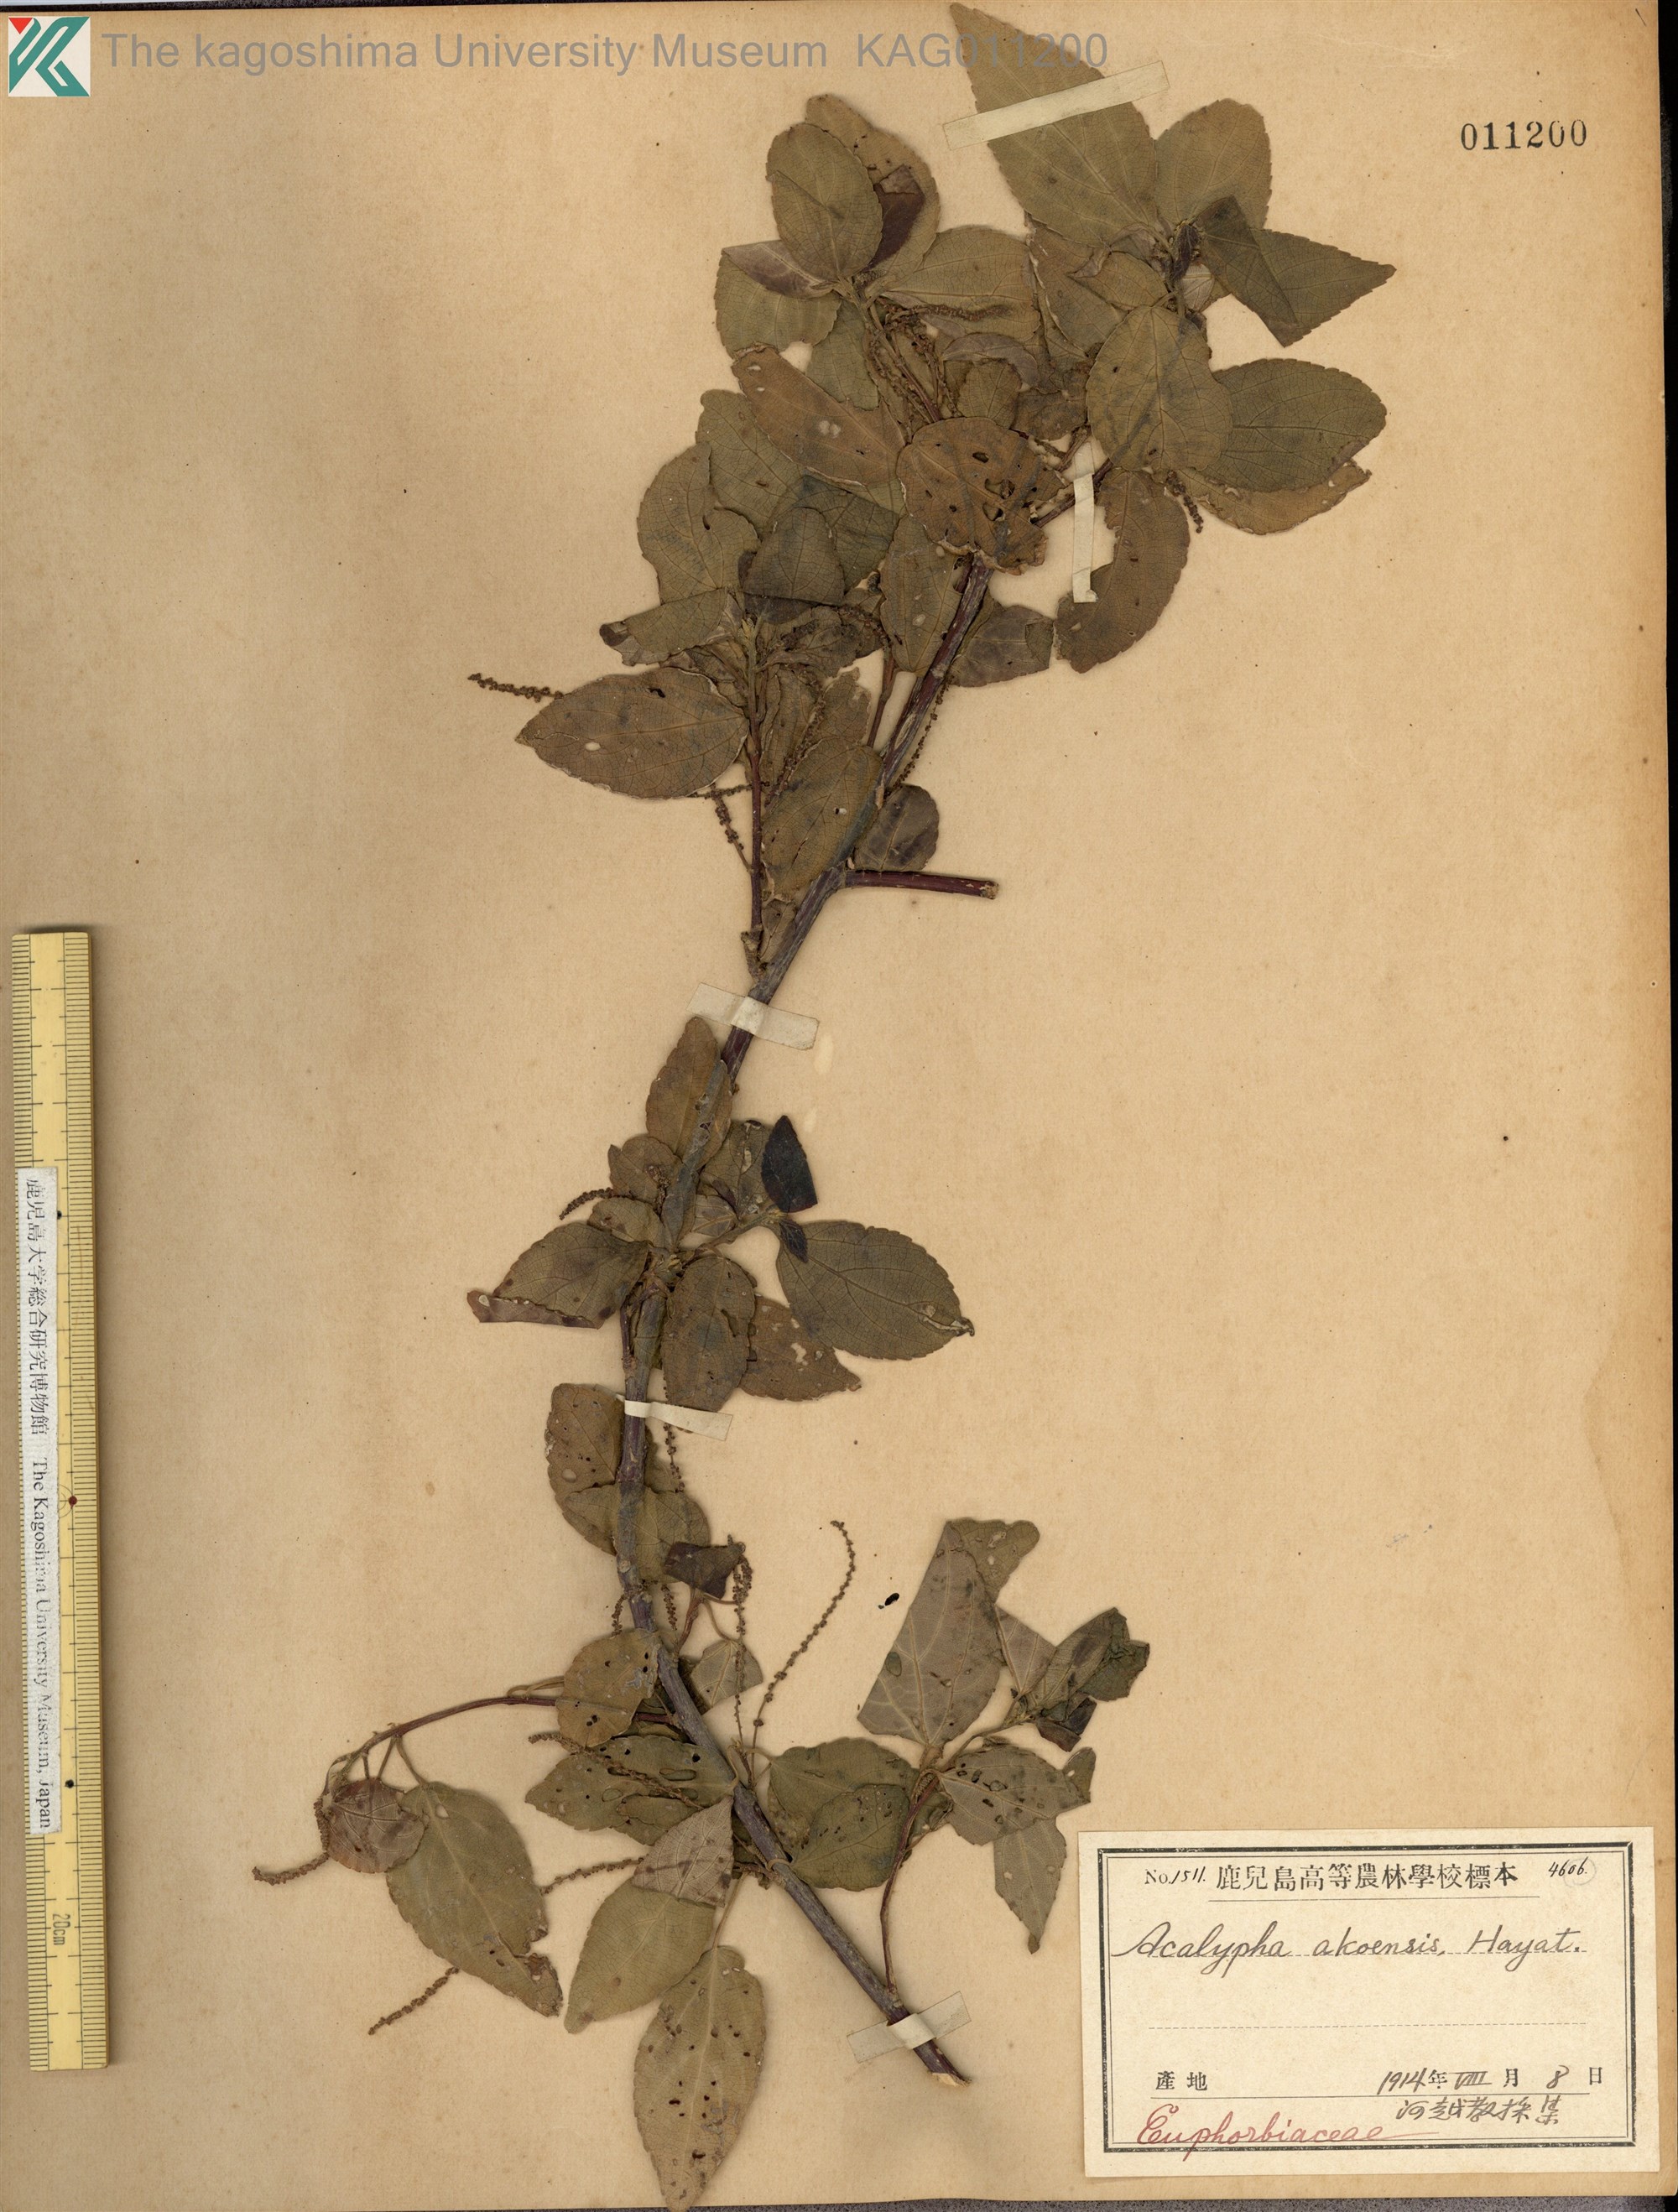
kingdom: Plantae
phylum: Tracheophyta
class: Magnoliopsida
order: Malpighiales
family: Euphorbiaceae
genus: Acalypha
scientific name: Acalypha angatensis
